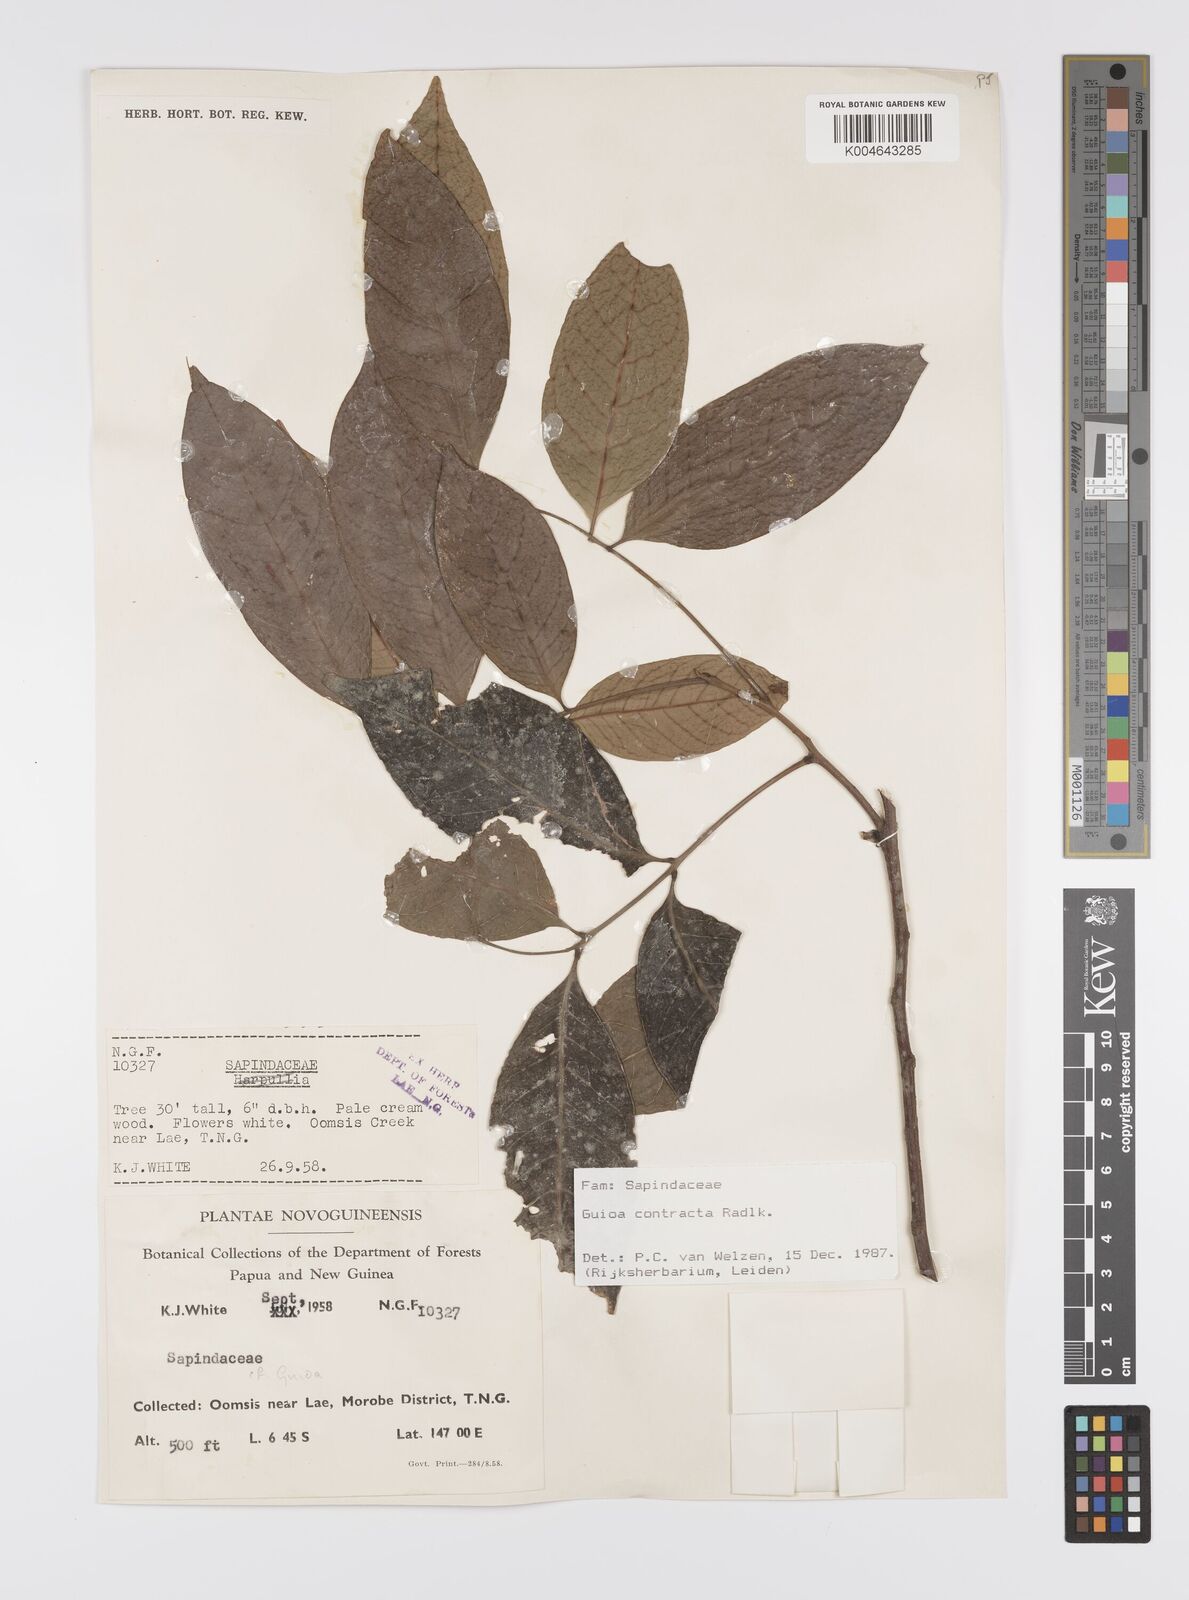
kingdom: Plantae
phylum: Tracheophyta
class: Magnoliopsida
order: Sapindales
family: Sapindaceae
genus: Guioa
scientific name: Guioa contracta
